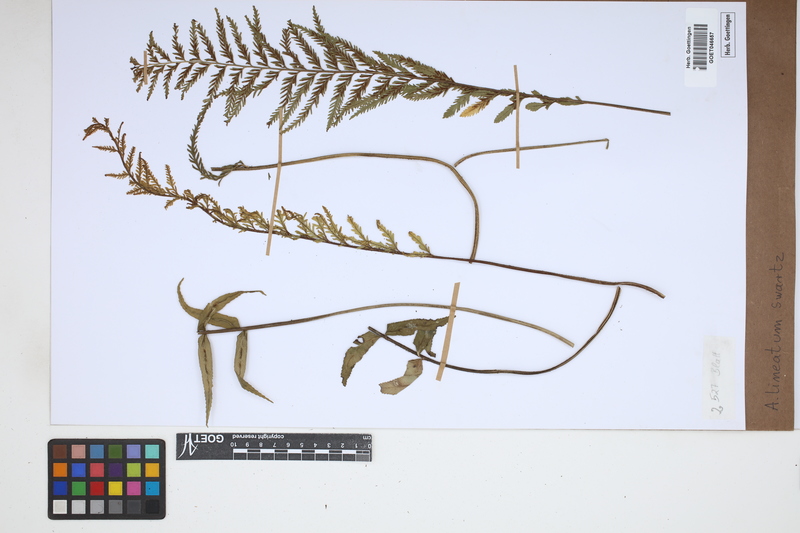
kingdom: Plantae
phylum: Tracheophyta
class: Polypodiopsida
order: Polypodiales
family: Aspleniaceae
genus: Asplenium
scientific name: Asplenium daucifolium
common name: Mauritius spleenwort
